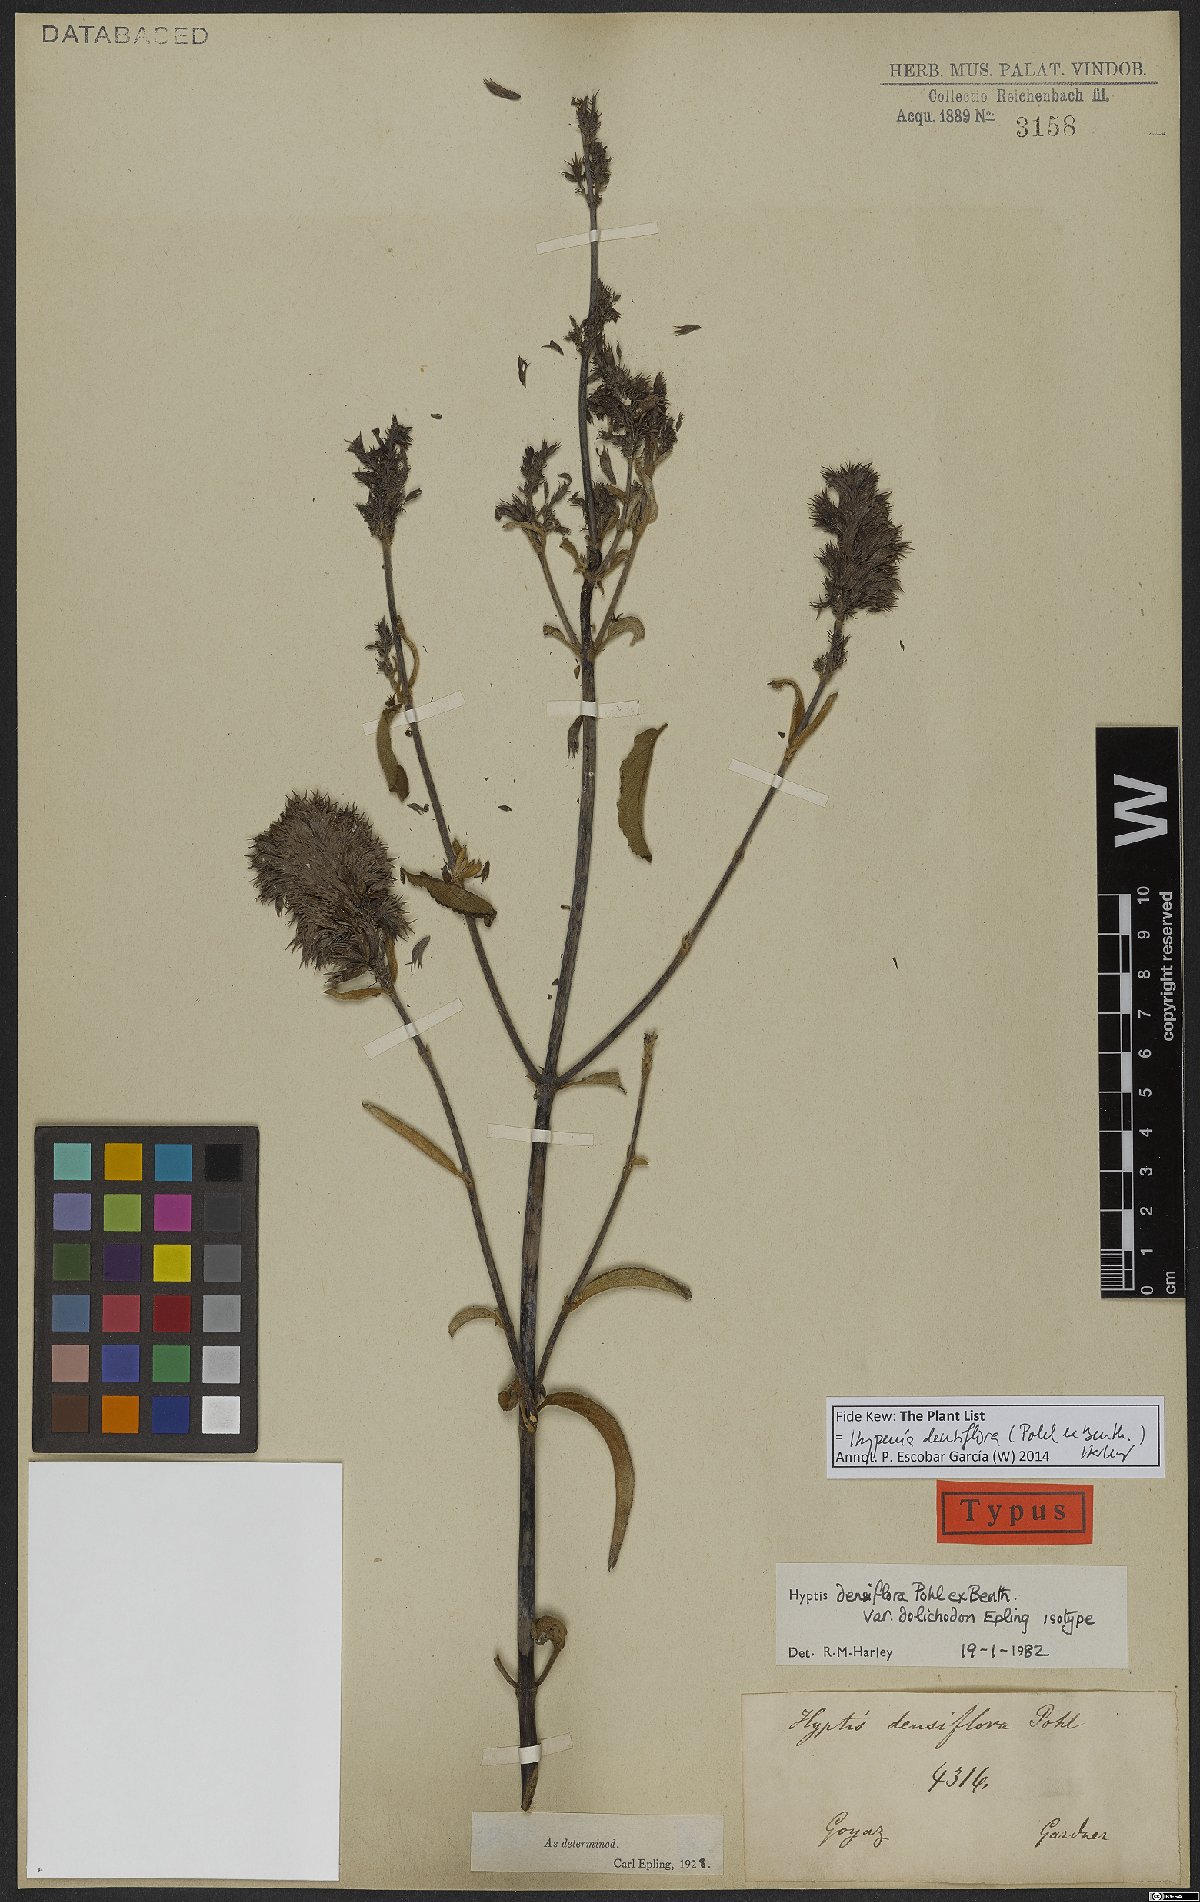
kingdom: Plantae
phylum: Tracheophyta
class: Magnoliopsida
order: Lamiales
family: Lamiaceae
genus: Hypenia
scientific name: Hypenia densiflora
